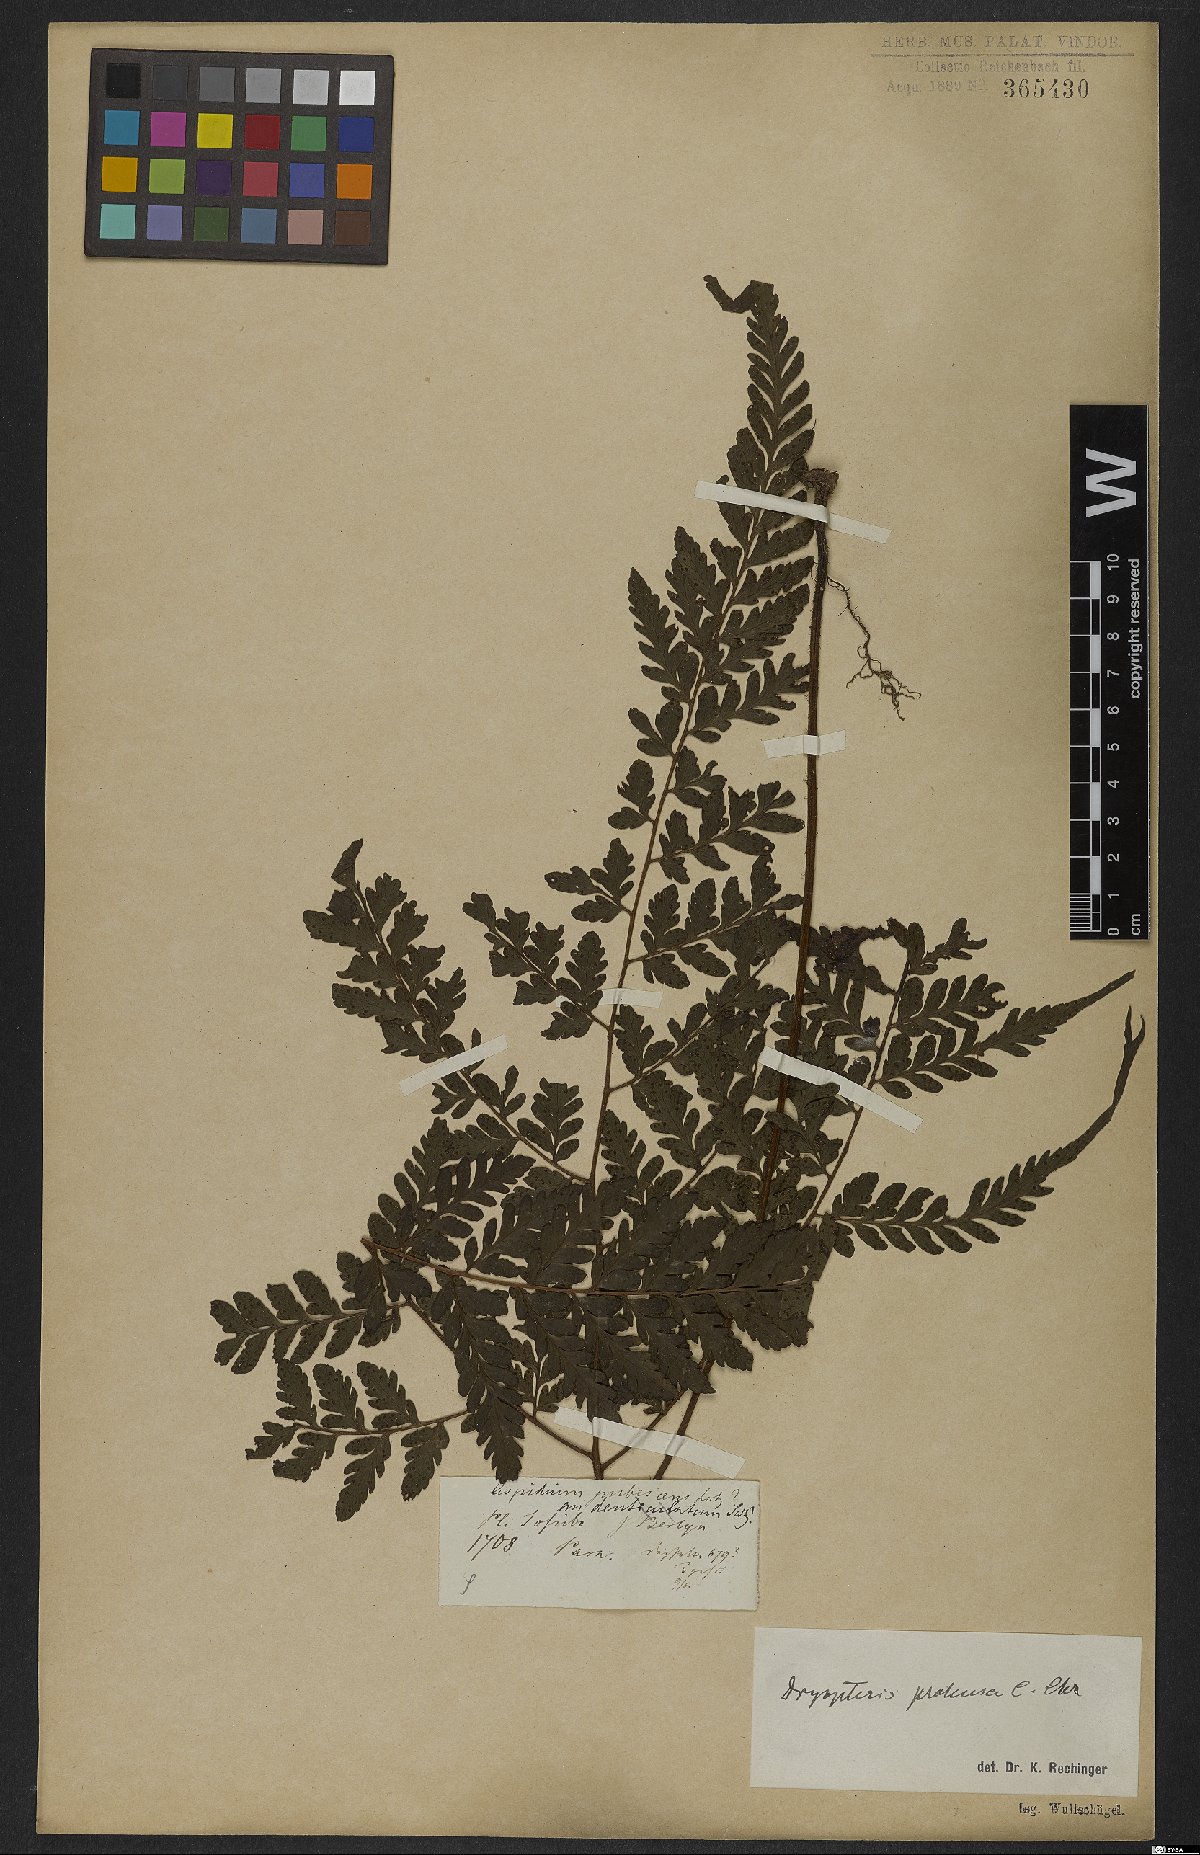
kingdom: Plantae
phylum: Tracheophyta
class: Polypodiopsida
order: Polypodiales
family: Tectariaceae
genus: Triplophyllum
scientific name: Triplophyllum protensum
